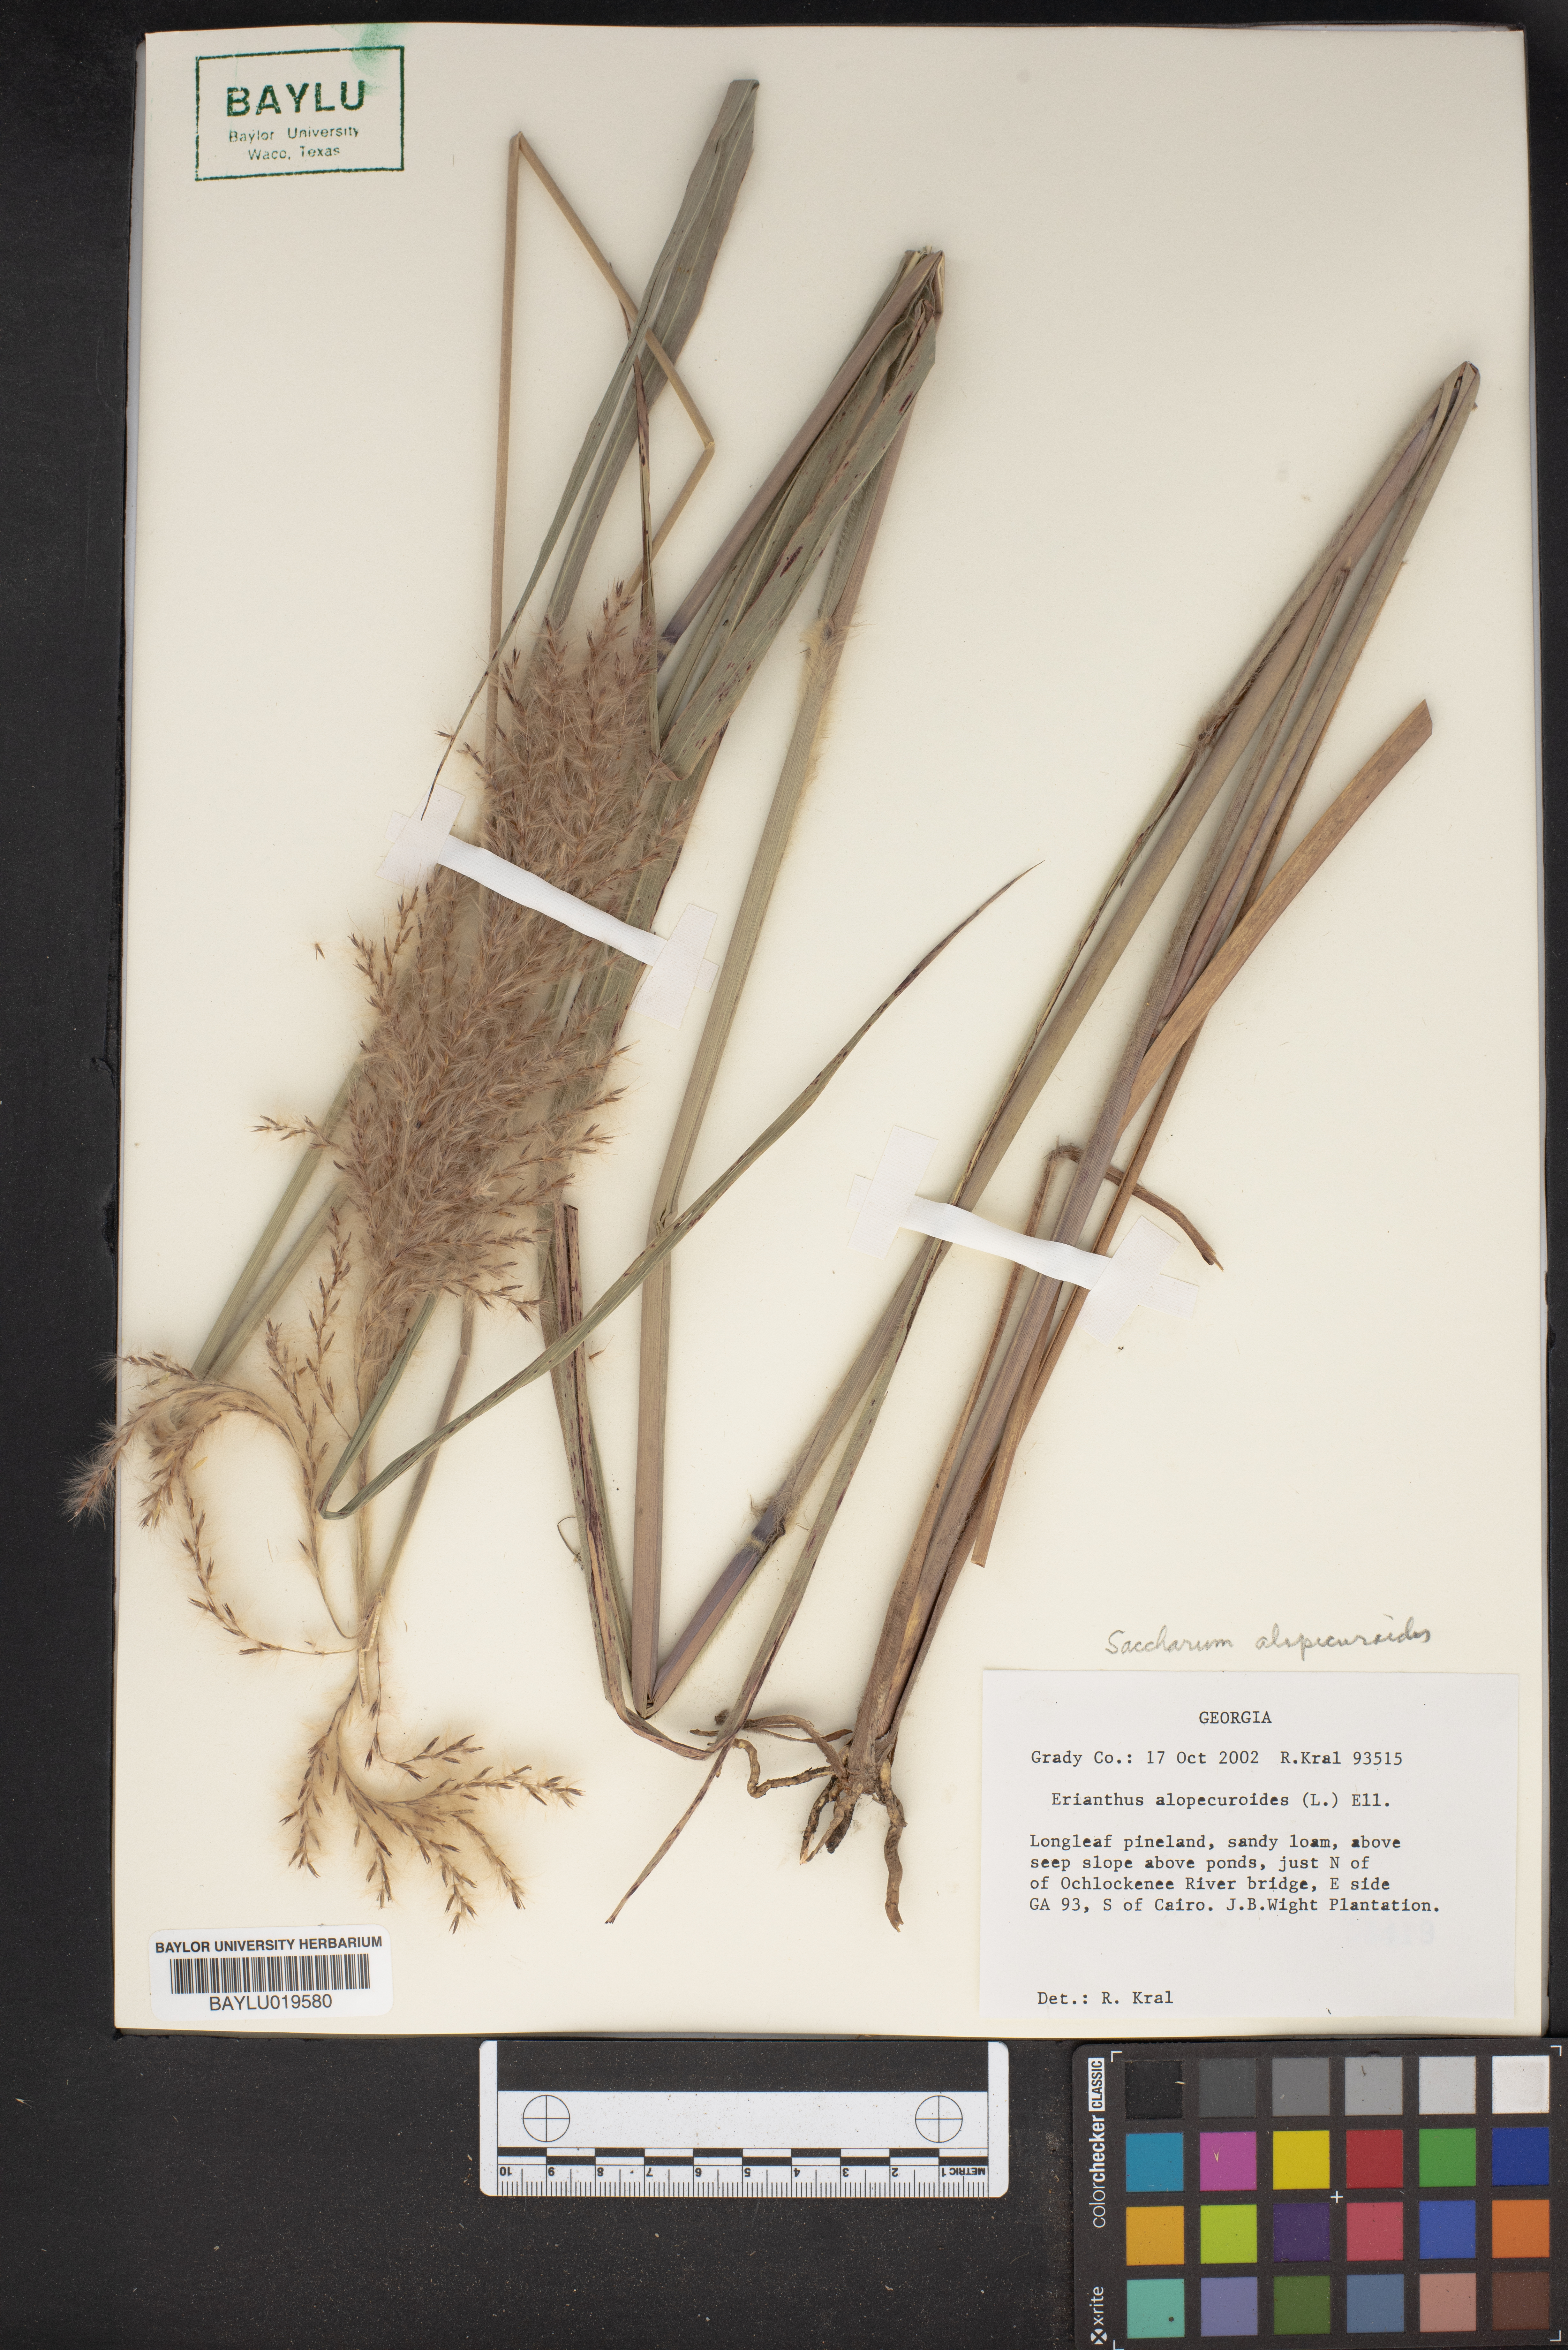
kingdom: Plantae
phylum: Tracheophyta
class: Liliopsida
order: Poales
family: Poaceae
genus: Erianthus
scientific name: Erianthus alopecuroides
